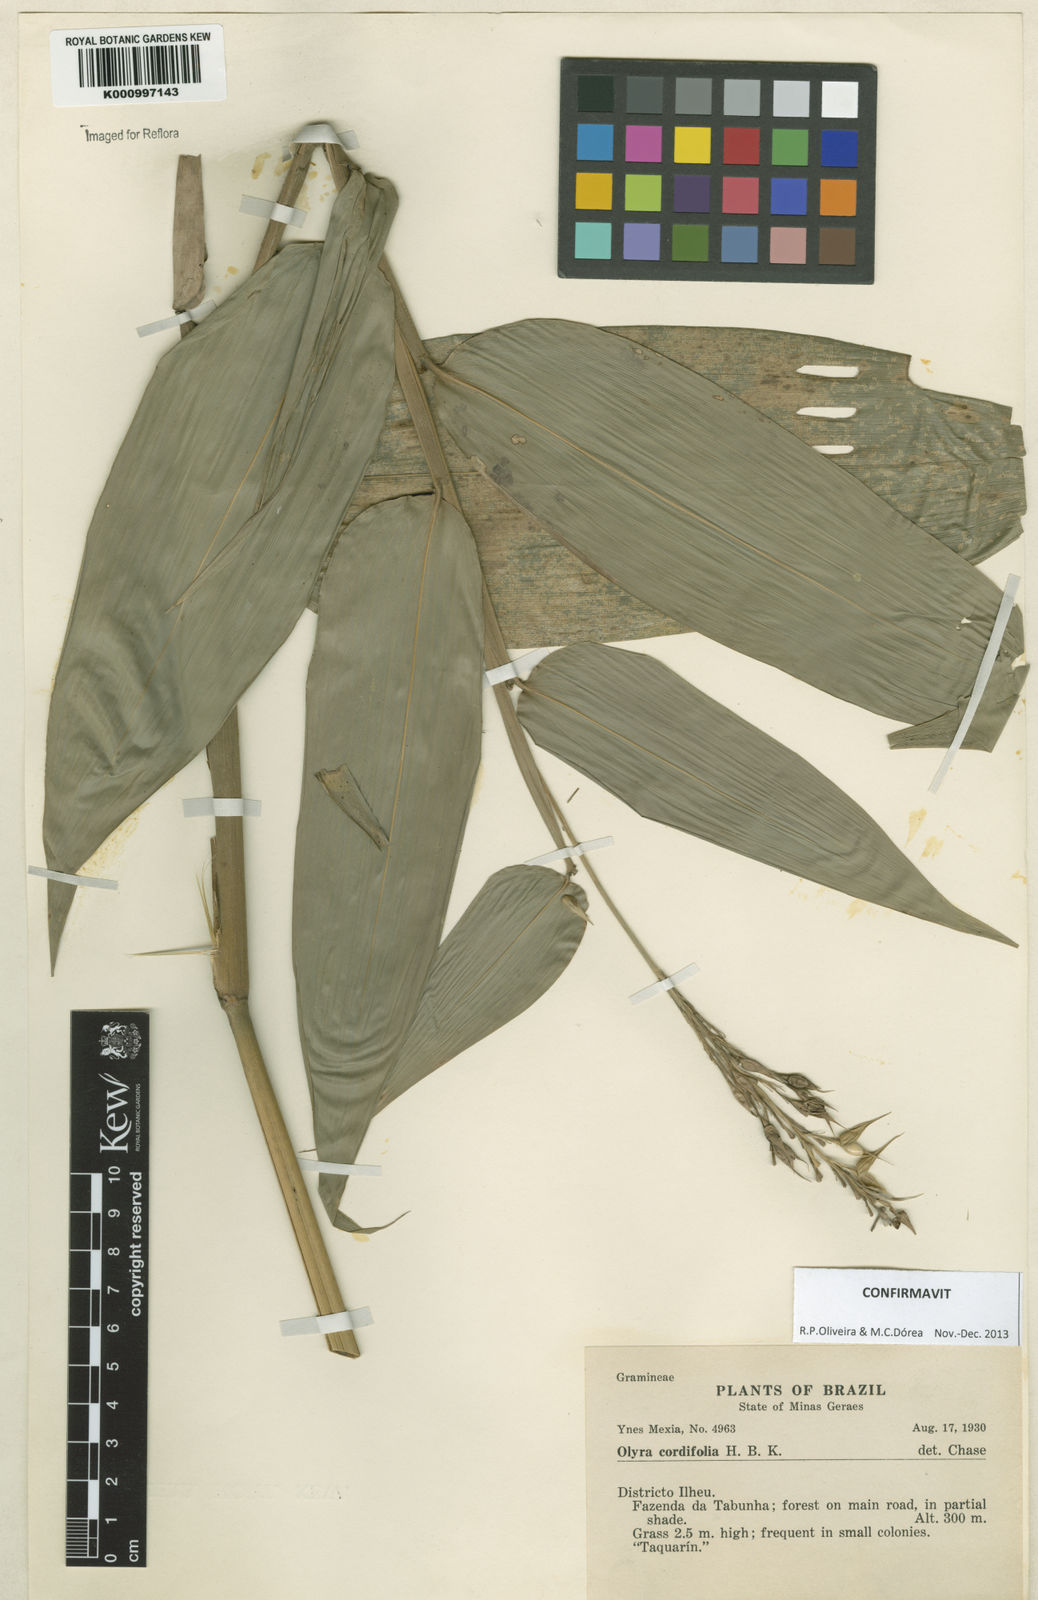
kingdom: Plantae
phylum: Tracheophyta
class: Liliopsida
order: Poales
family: Poaceae
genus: Olyra
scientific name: Olyra latifolia
